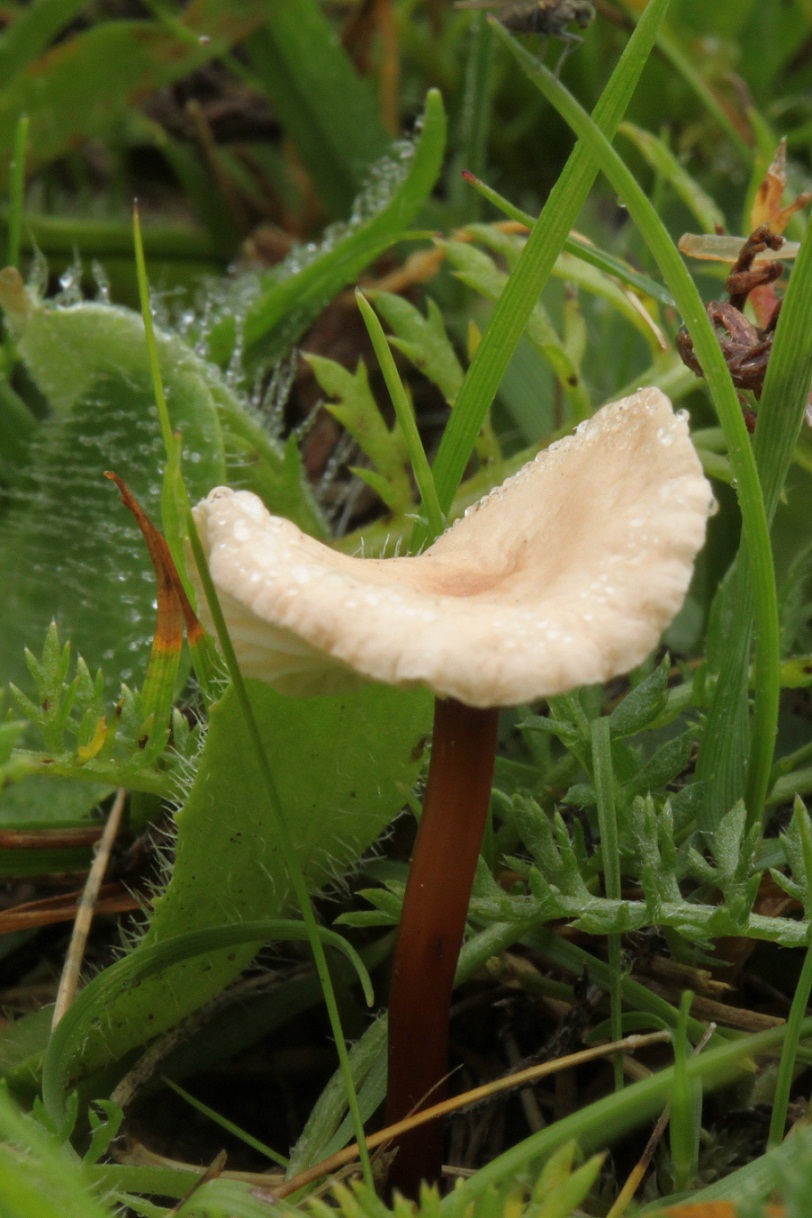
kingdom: Fungi
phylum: Basidiomycota
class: Agaricomycetes
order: Agaricales
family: Omphalotaceae
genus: Mycetinis
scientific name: Mycetinis scorodonius
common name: lille løghat
